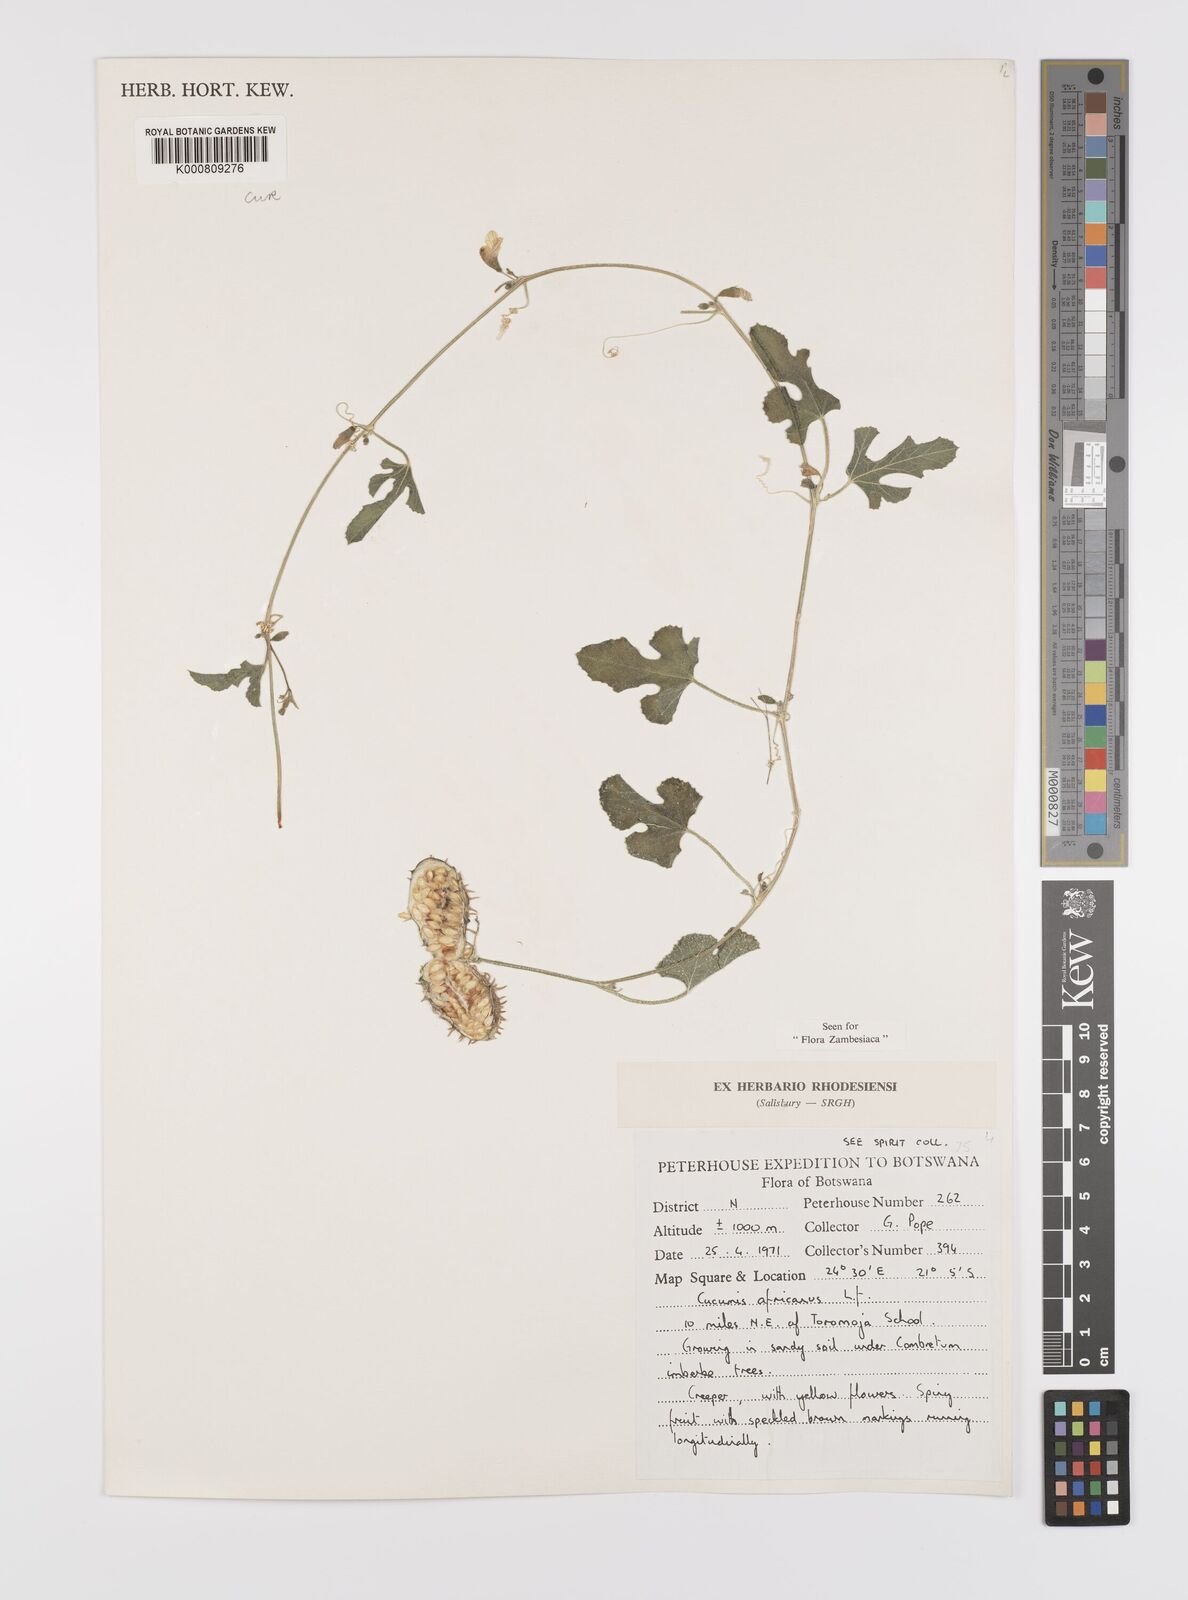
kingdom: Plantae
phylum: Tracheophyta
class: Magnoliopsida
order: Cucurbitales
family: Cucurbitaceae
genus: Cucumis
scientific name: Cucumis africanus
